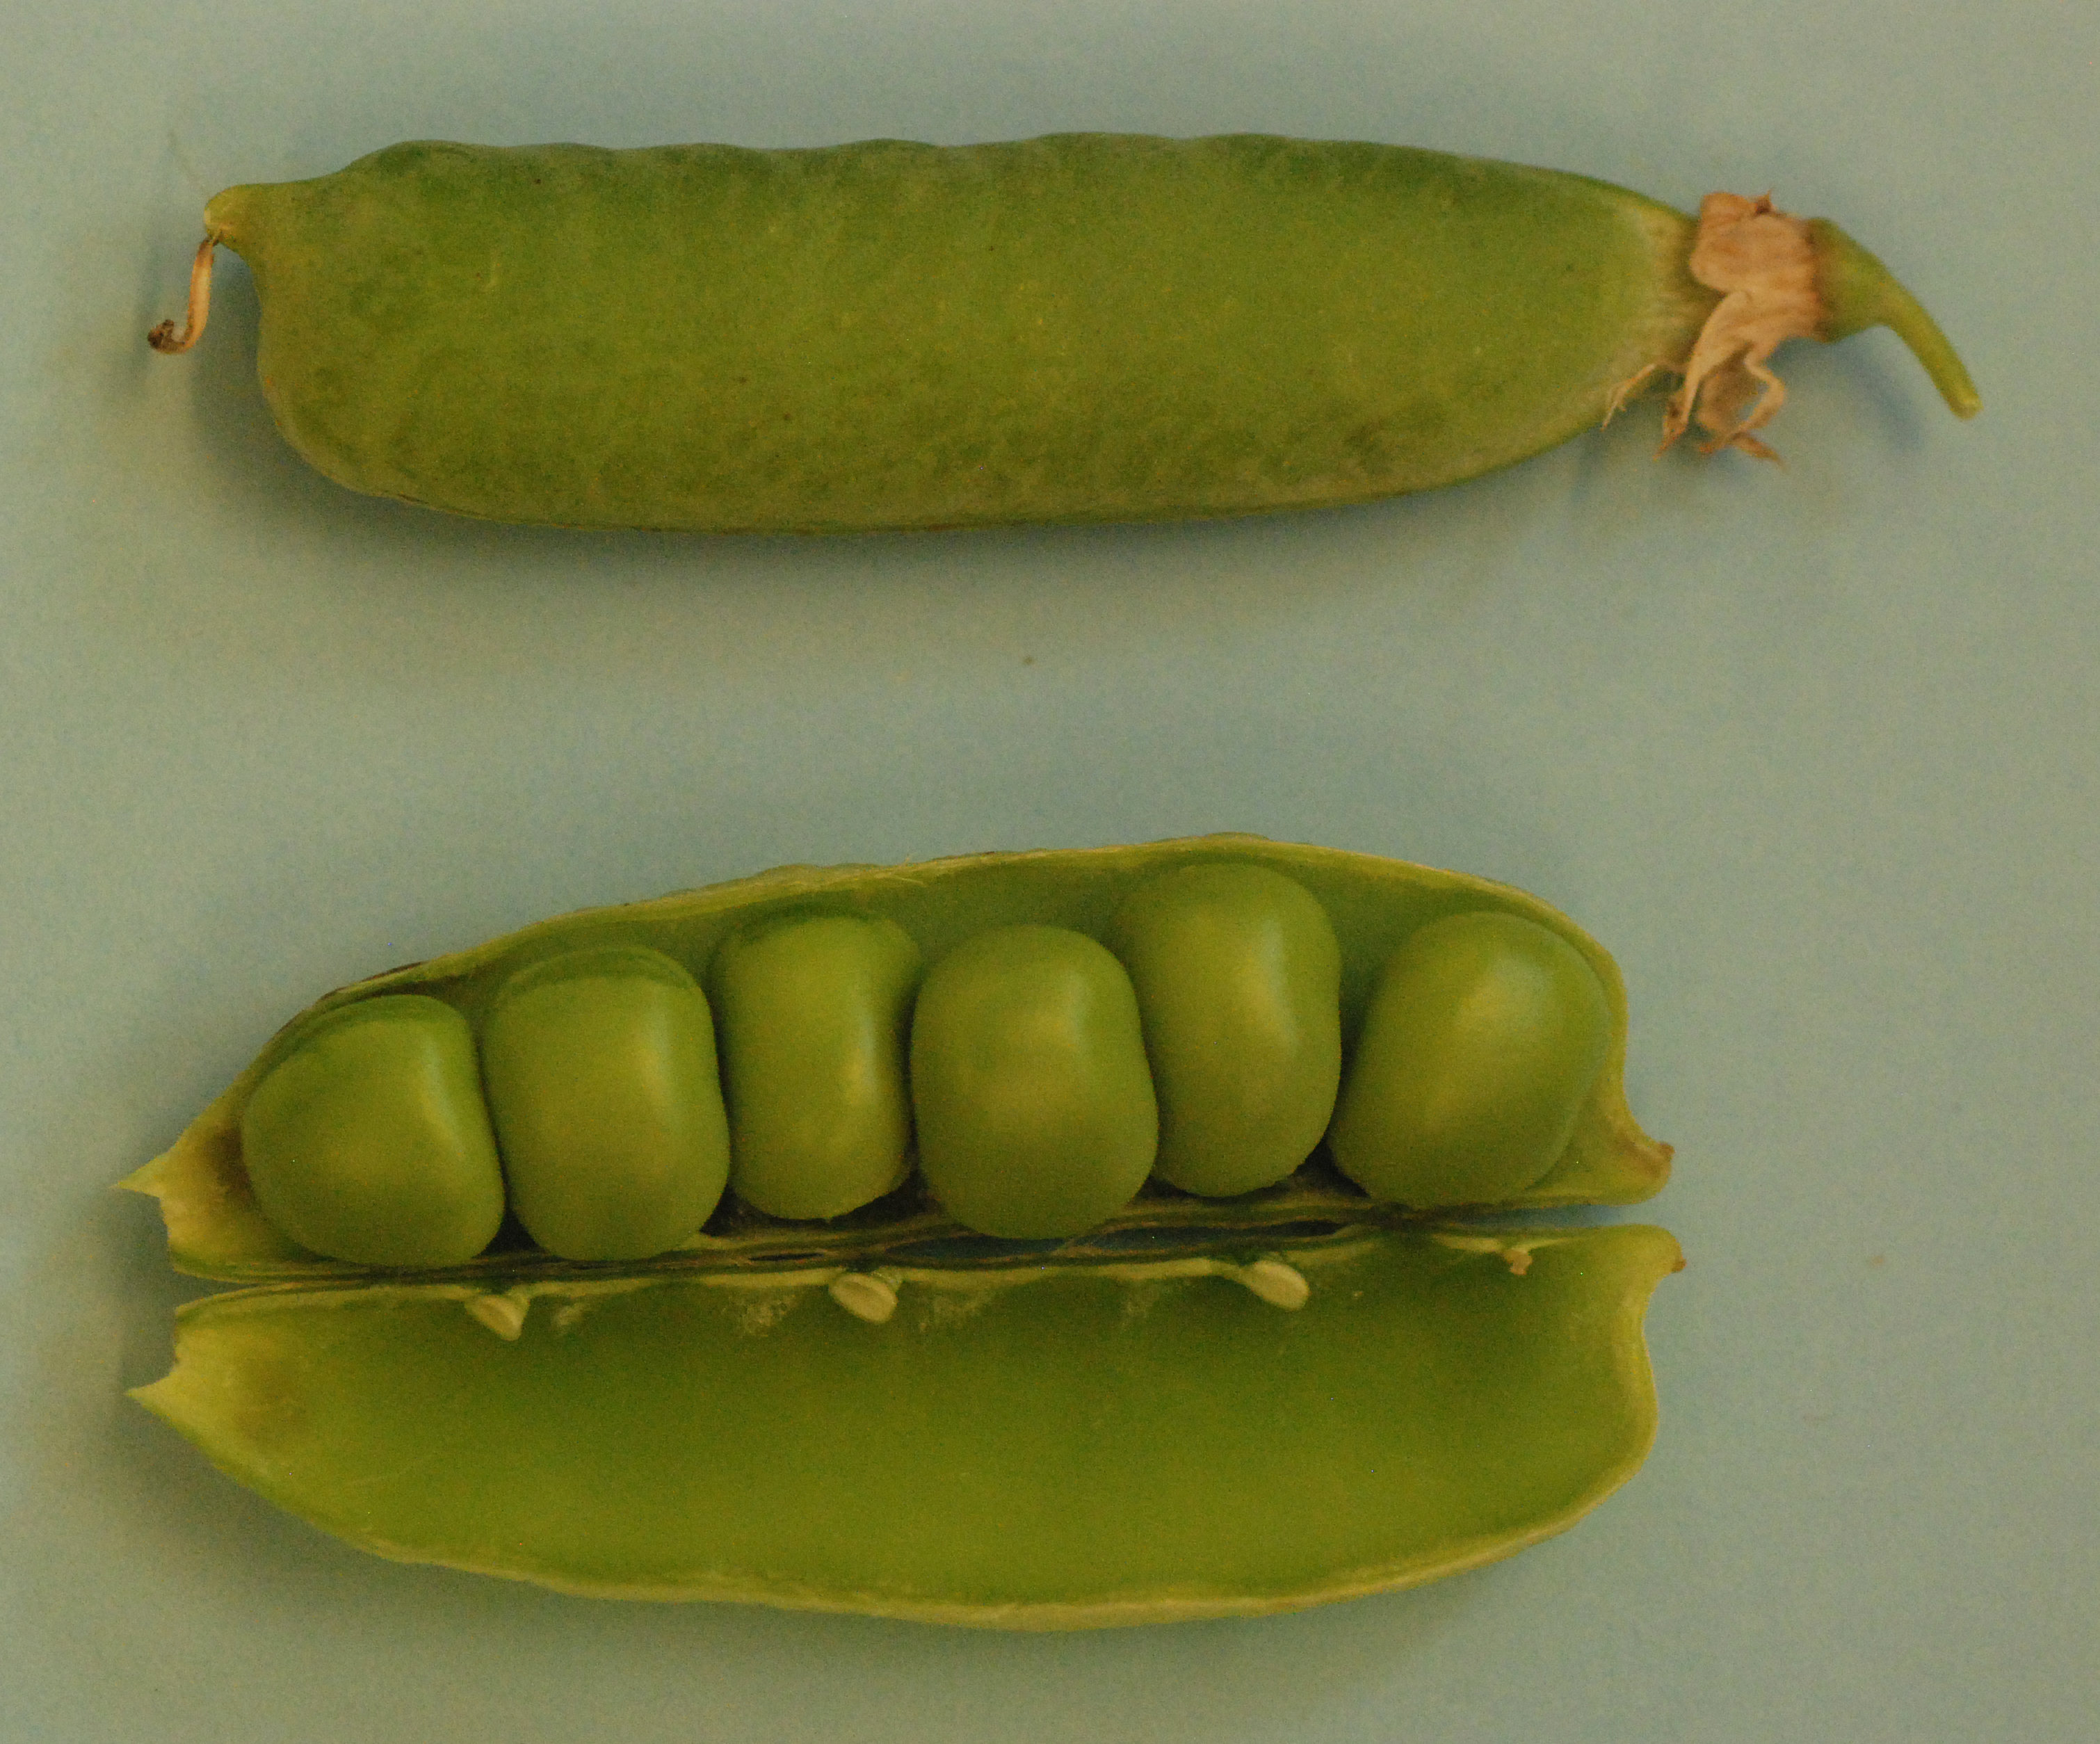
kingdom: Plantae
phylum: Tracheophyta
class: Magnoliopsida
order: Fabales
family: Fabaceae
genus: Lathyrus
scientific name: Lathyrus oleraceus
